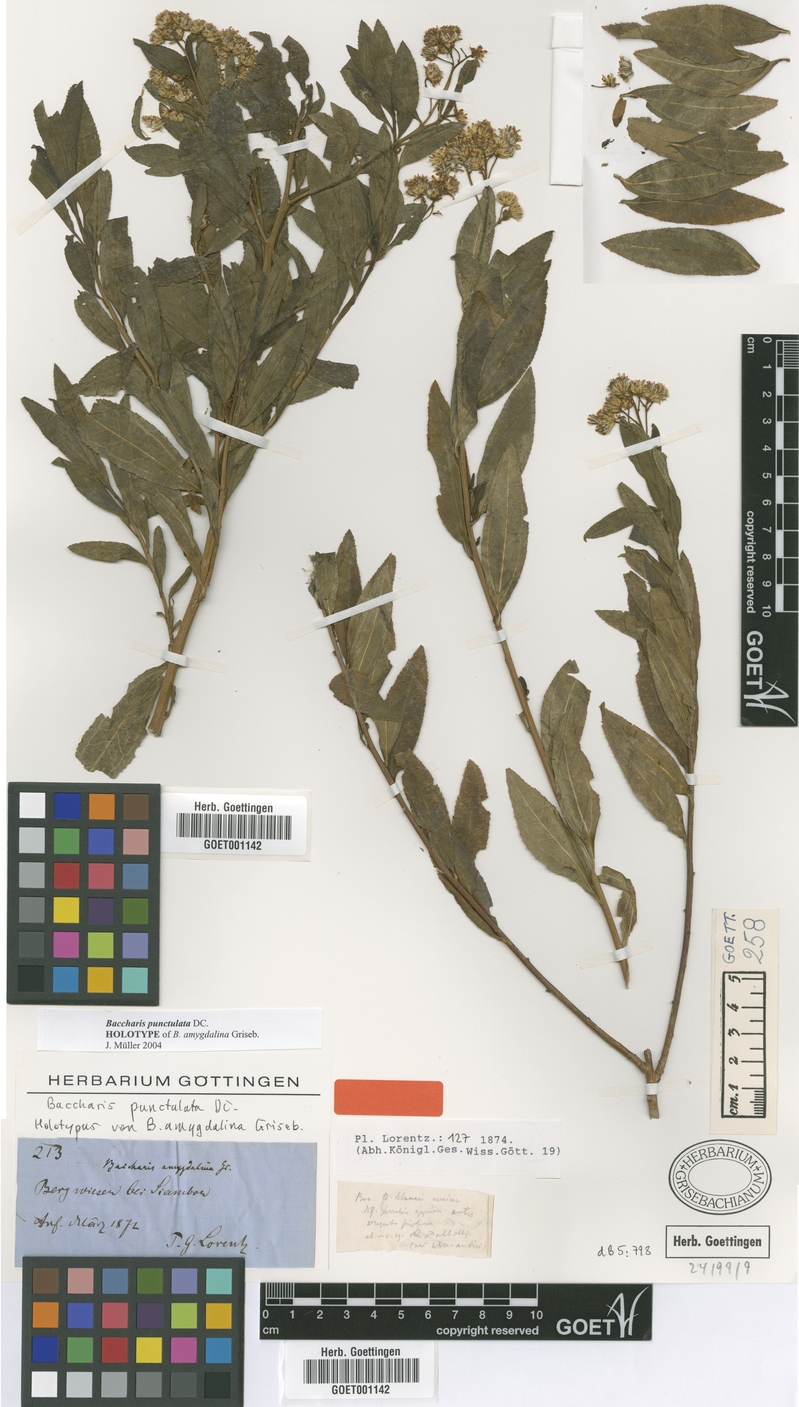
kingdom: Plantae
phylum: Tracheophyta
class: Magnoliopsida
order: Asterales
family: Asteraceae
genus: Baccharis
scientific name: Baccharis punctulata
